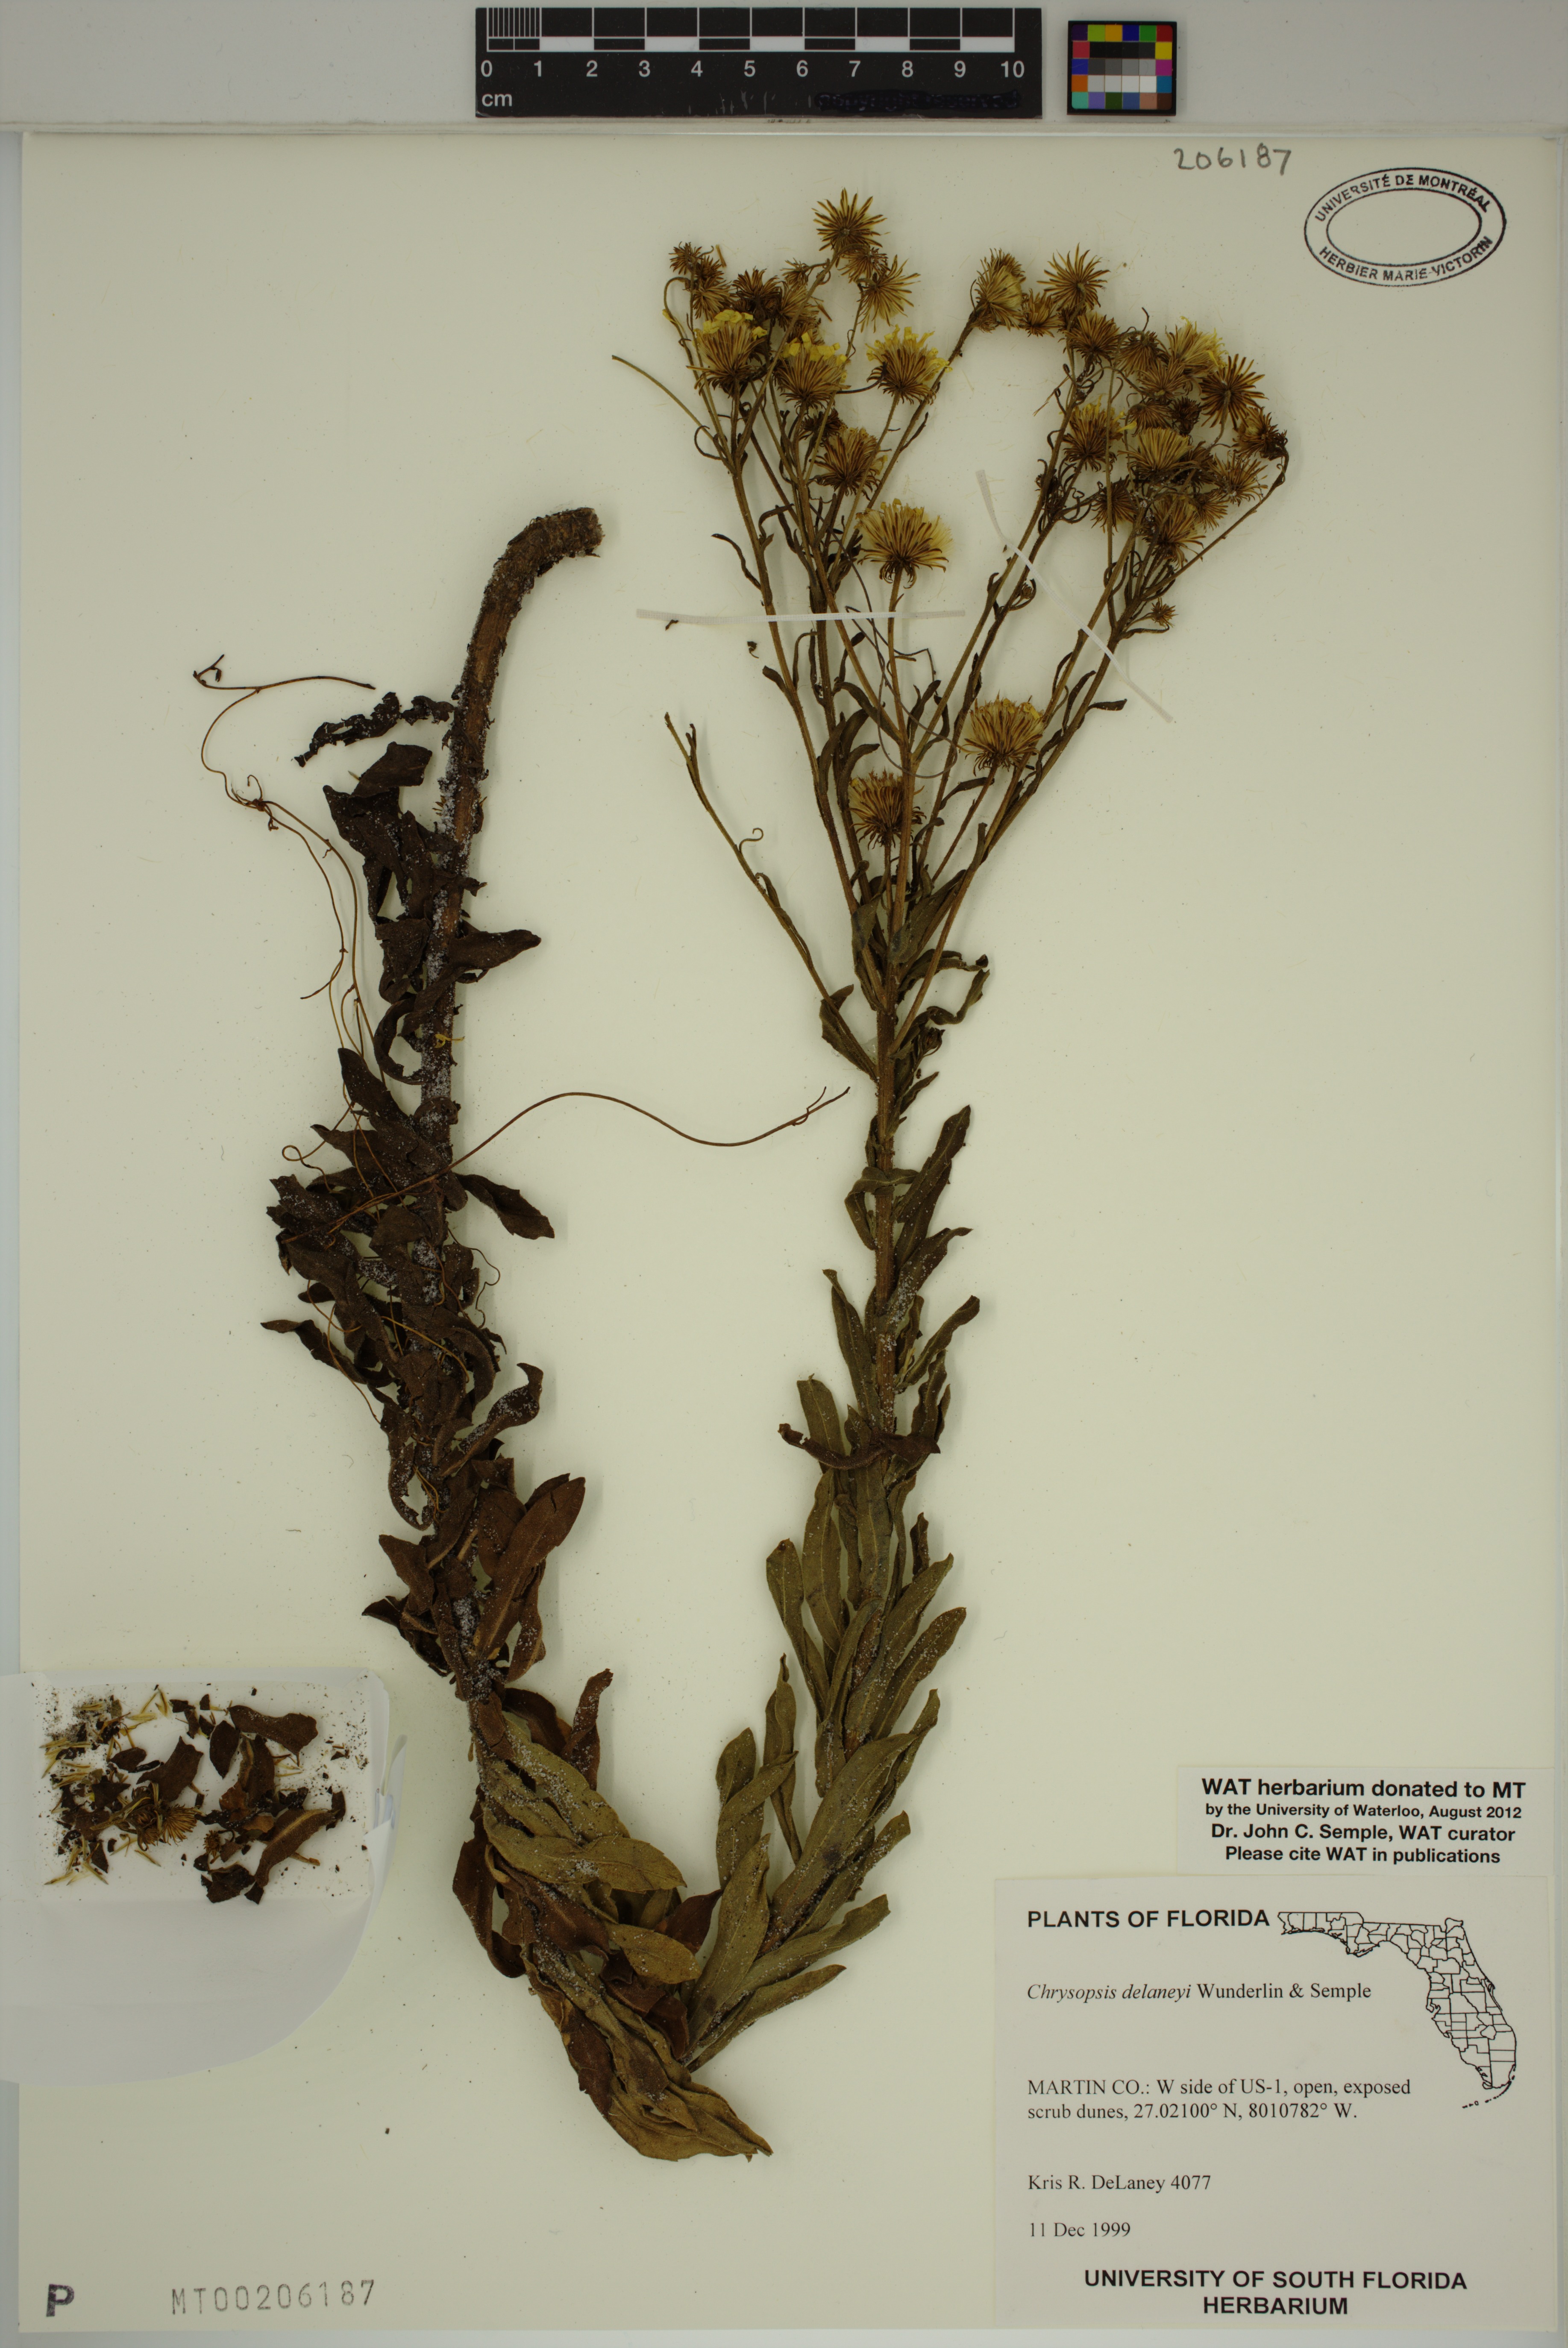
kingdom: Plantae
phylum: Tracheophyta
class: Magnoliopsida
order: Asterales
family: Asteraceae
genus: Chrysopsis
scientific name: Chrysopsis delaneyi
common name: Delaney's goldenaster
